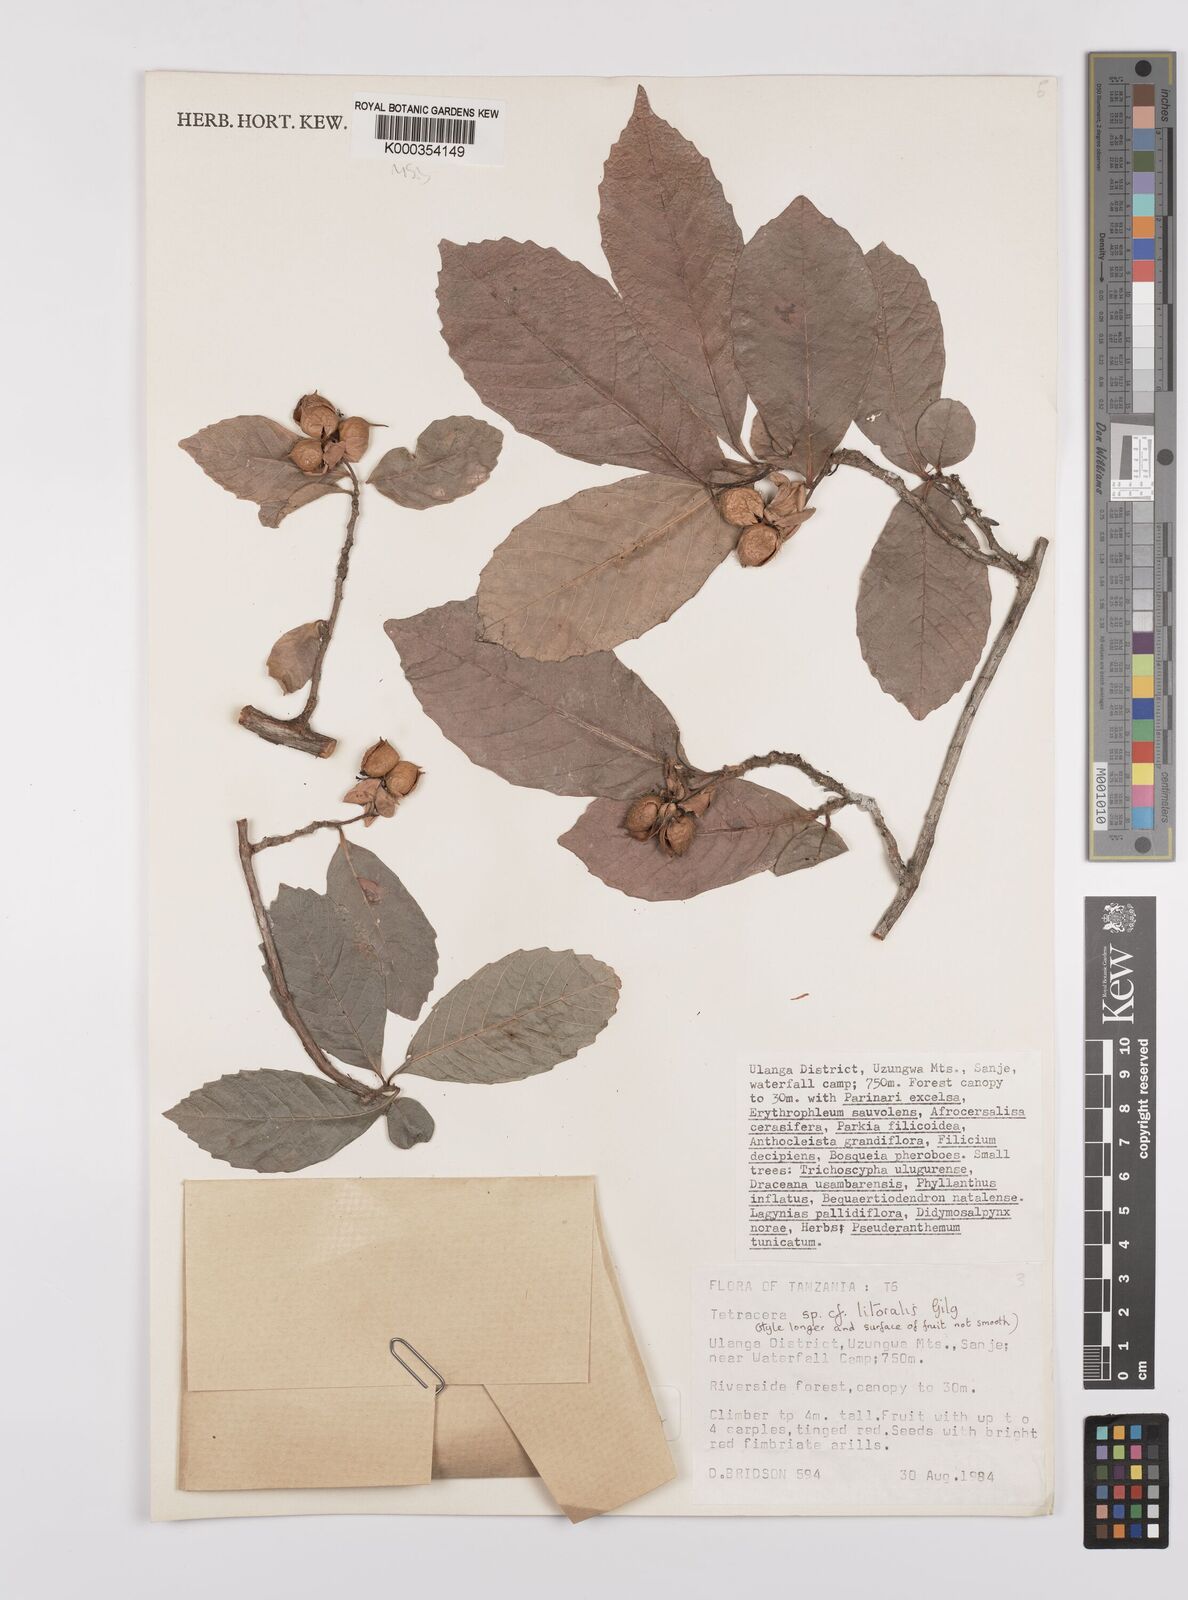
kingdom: Plantae
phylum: Tracheophyta
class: Magnoliopsida
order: Dilleniales
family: Dilleniaceae
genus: Tetracera
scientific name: Tetracera litoralis
